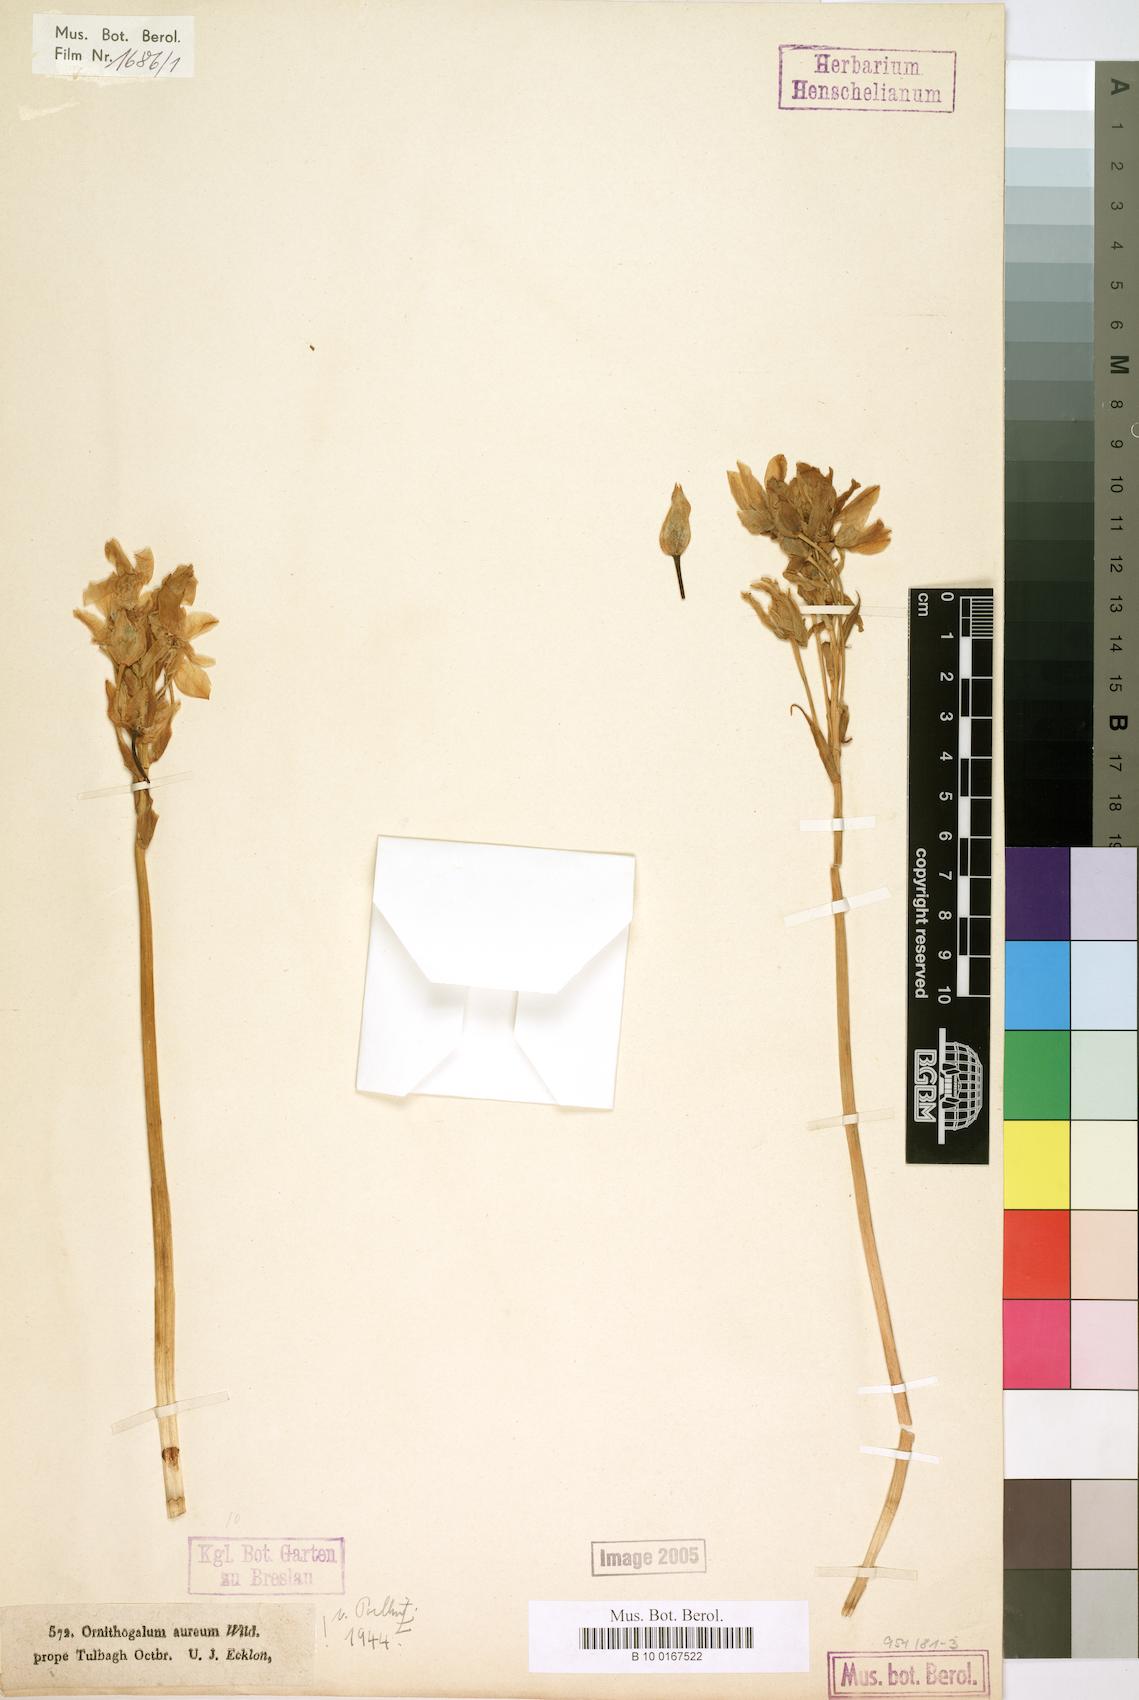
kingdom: Plantae
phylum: Tracheophyta
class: Liliopsida
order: Asparagales
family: Asparagaceae
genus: Ornithogalum
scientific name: Ornithogalum dubium
